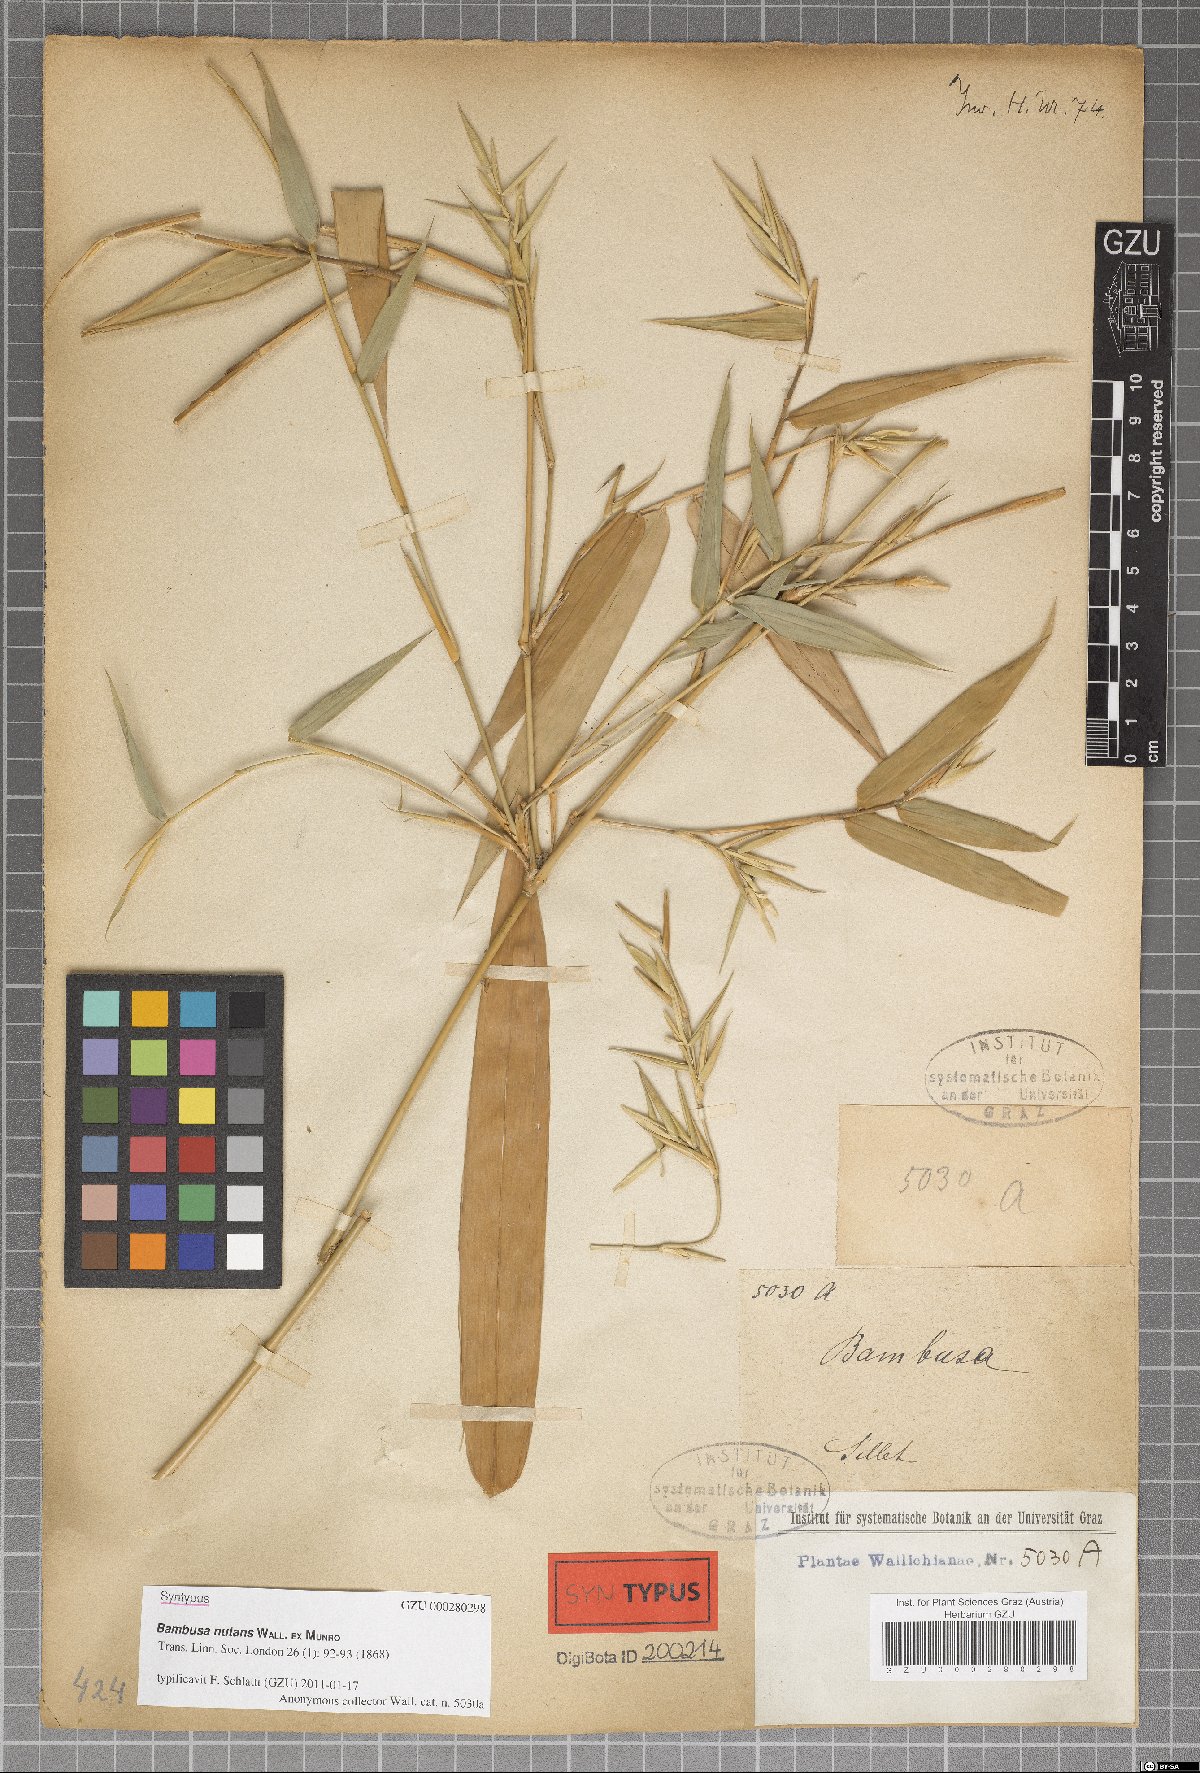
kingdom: Plantae
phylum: Tracheophyta
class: Liliopsida
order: Poales
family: Poaceae
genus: Bambusa
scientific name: Bambusa nutans
